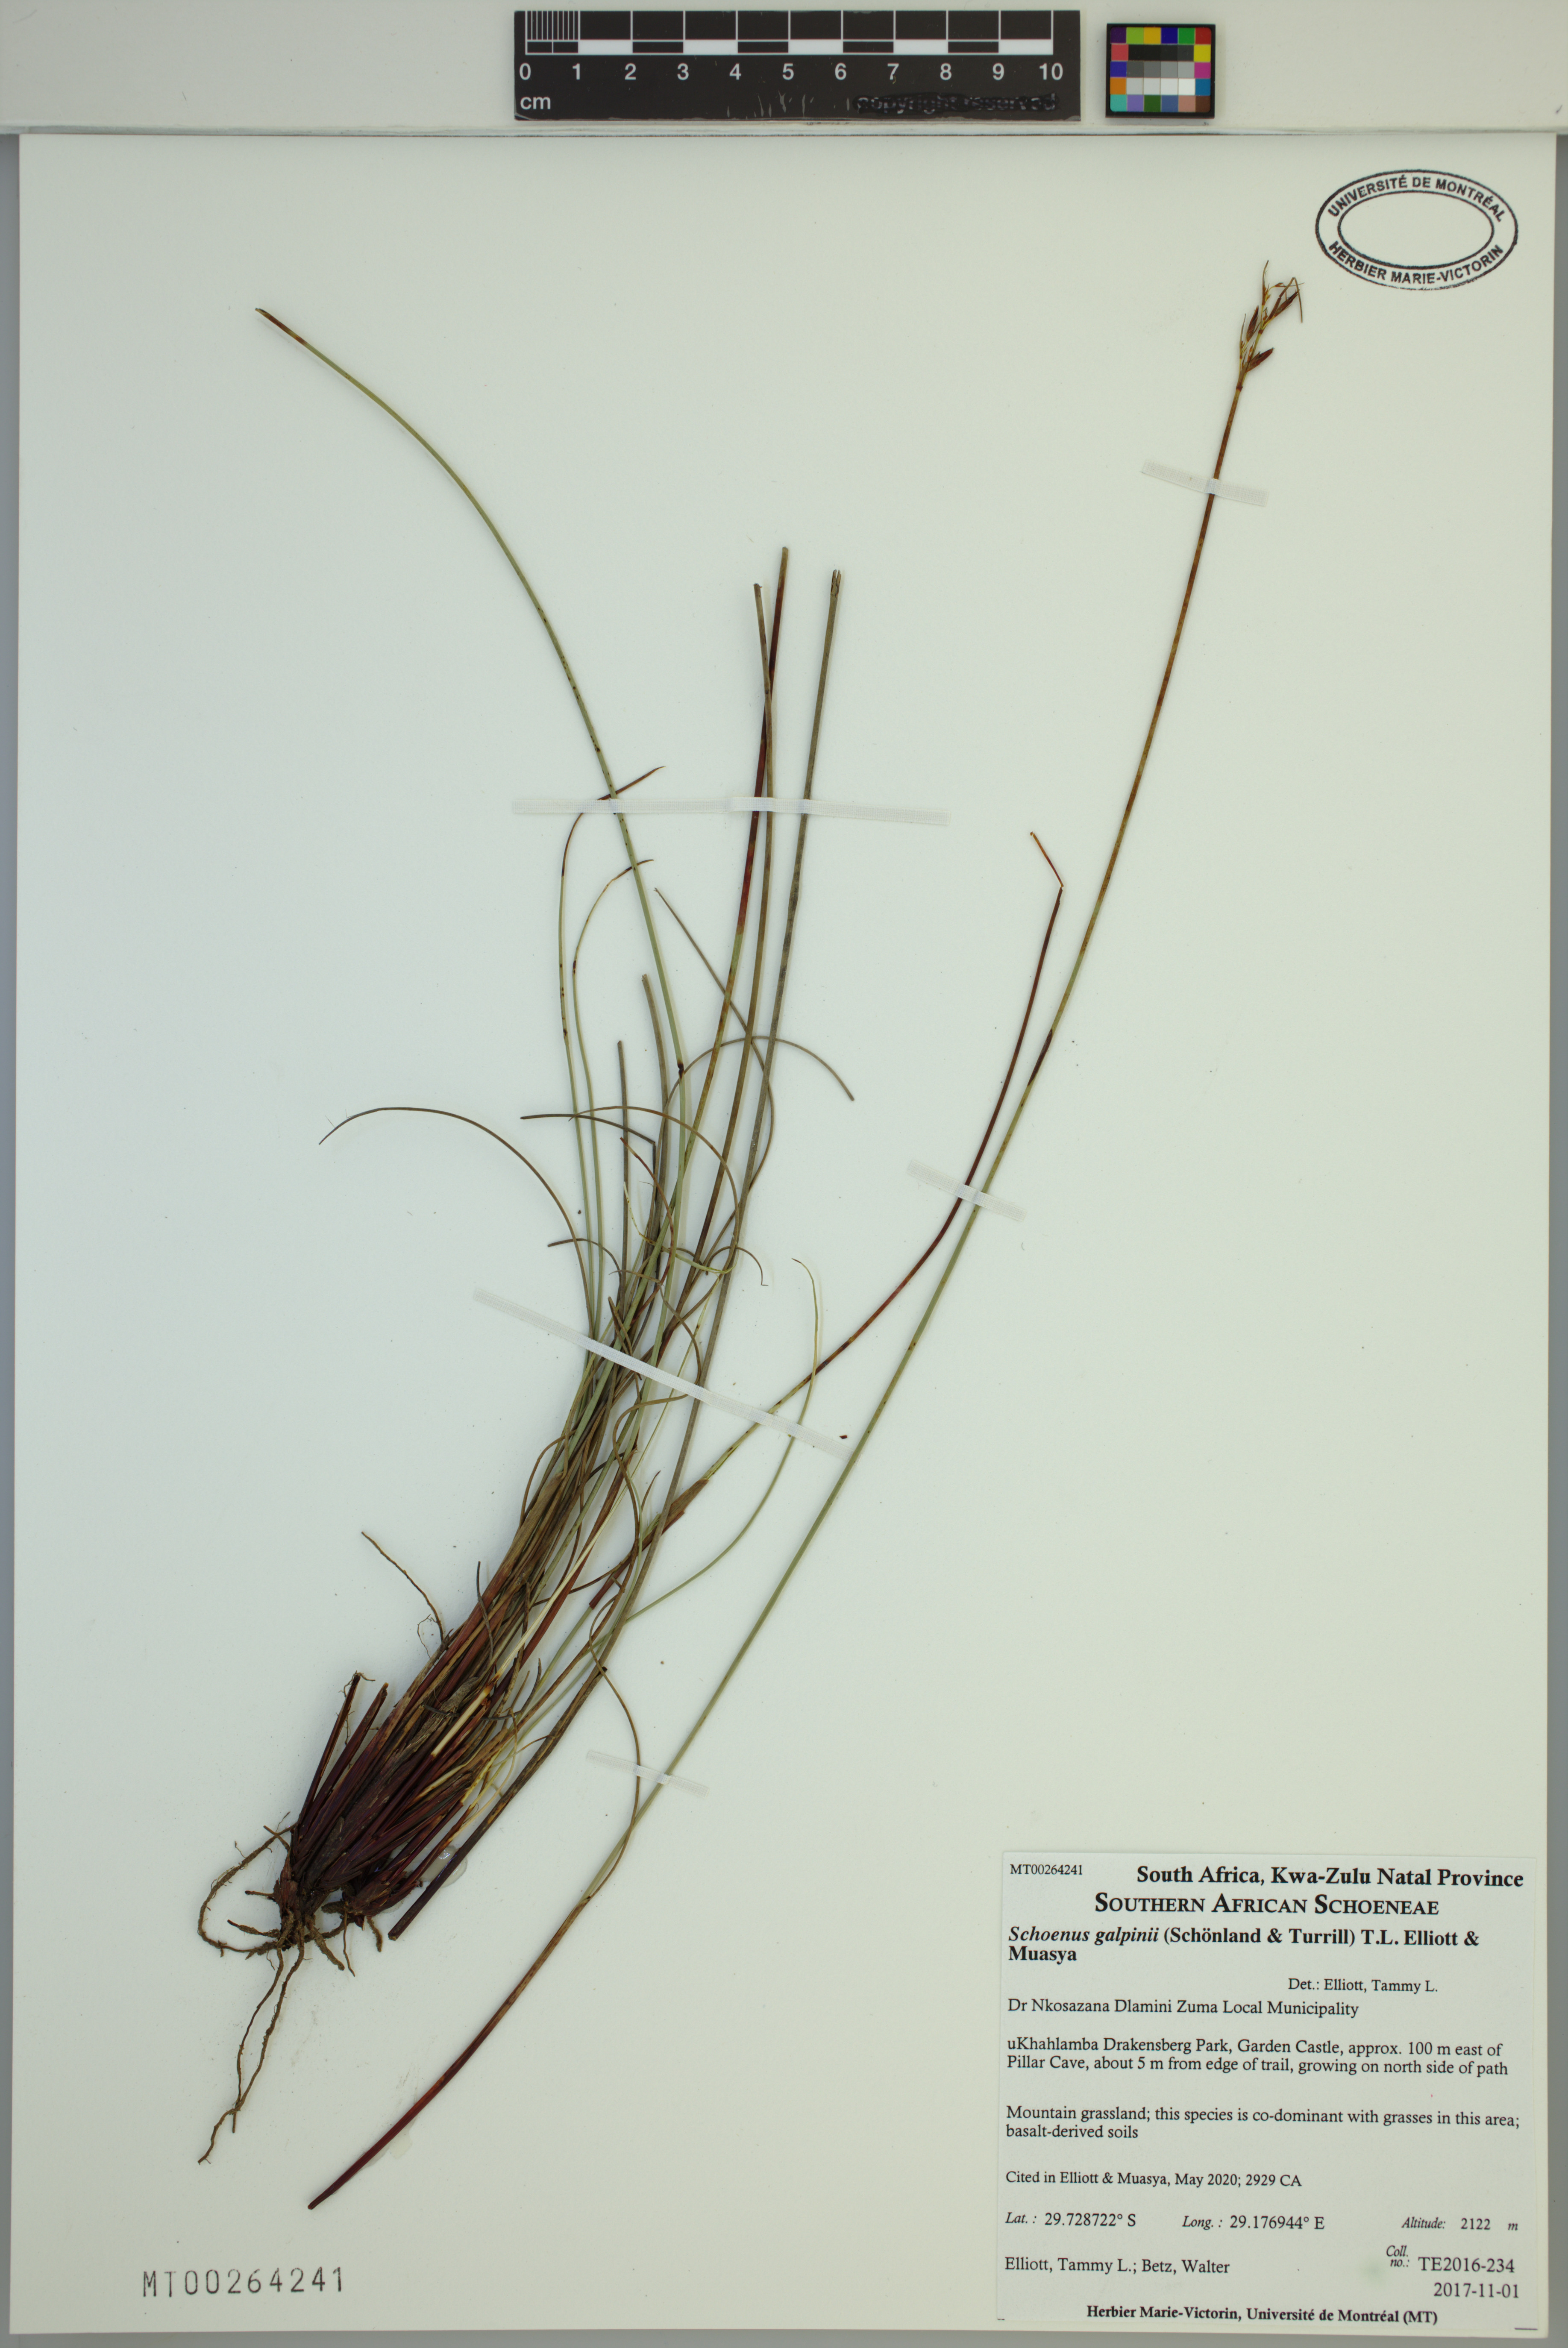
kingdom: Plantae
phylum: Tracheophyta
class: Liliopsida
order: Poales
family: Cyperaceae
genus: Schoenus
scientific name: Schoenus galpinii
